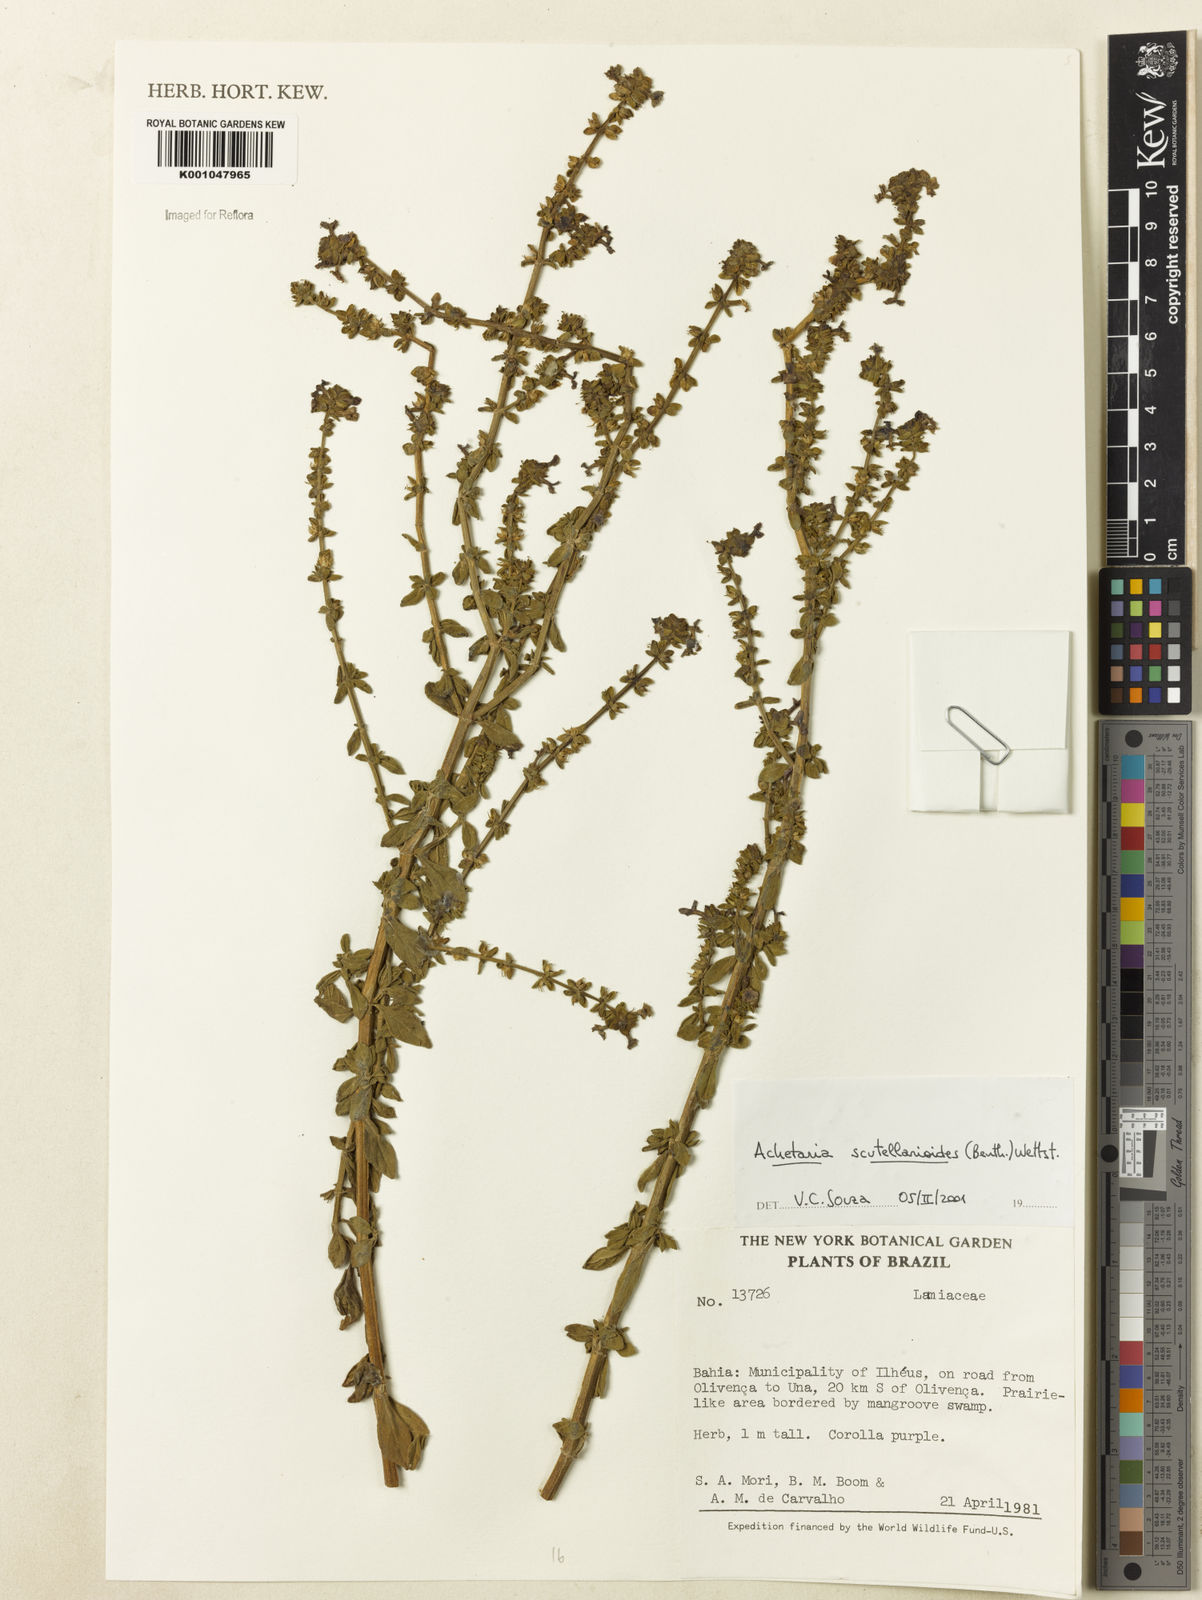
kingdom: Plantae
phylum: Tracheophyta
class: Magnoliopsida
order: Lamiales
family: Plantaginaceae
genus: Matourea
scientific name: Matourea scutellarioides
